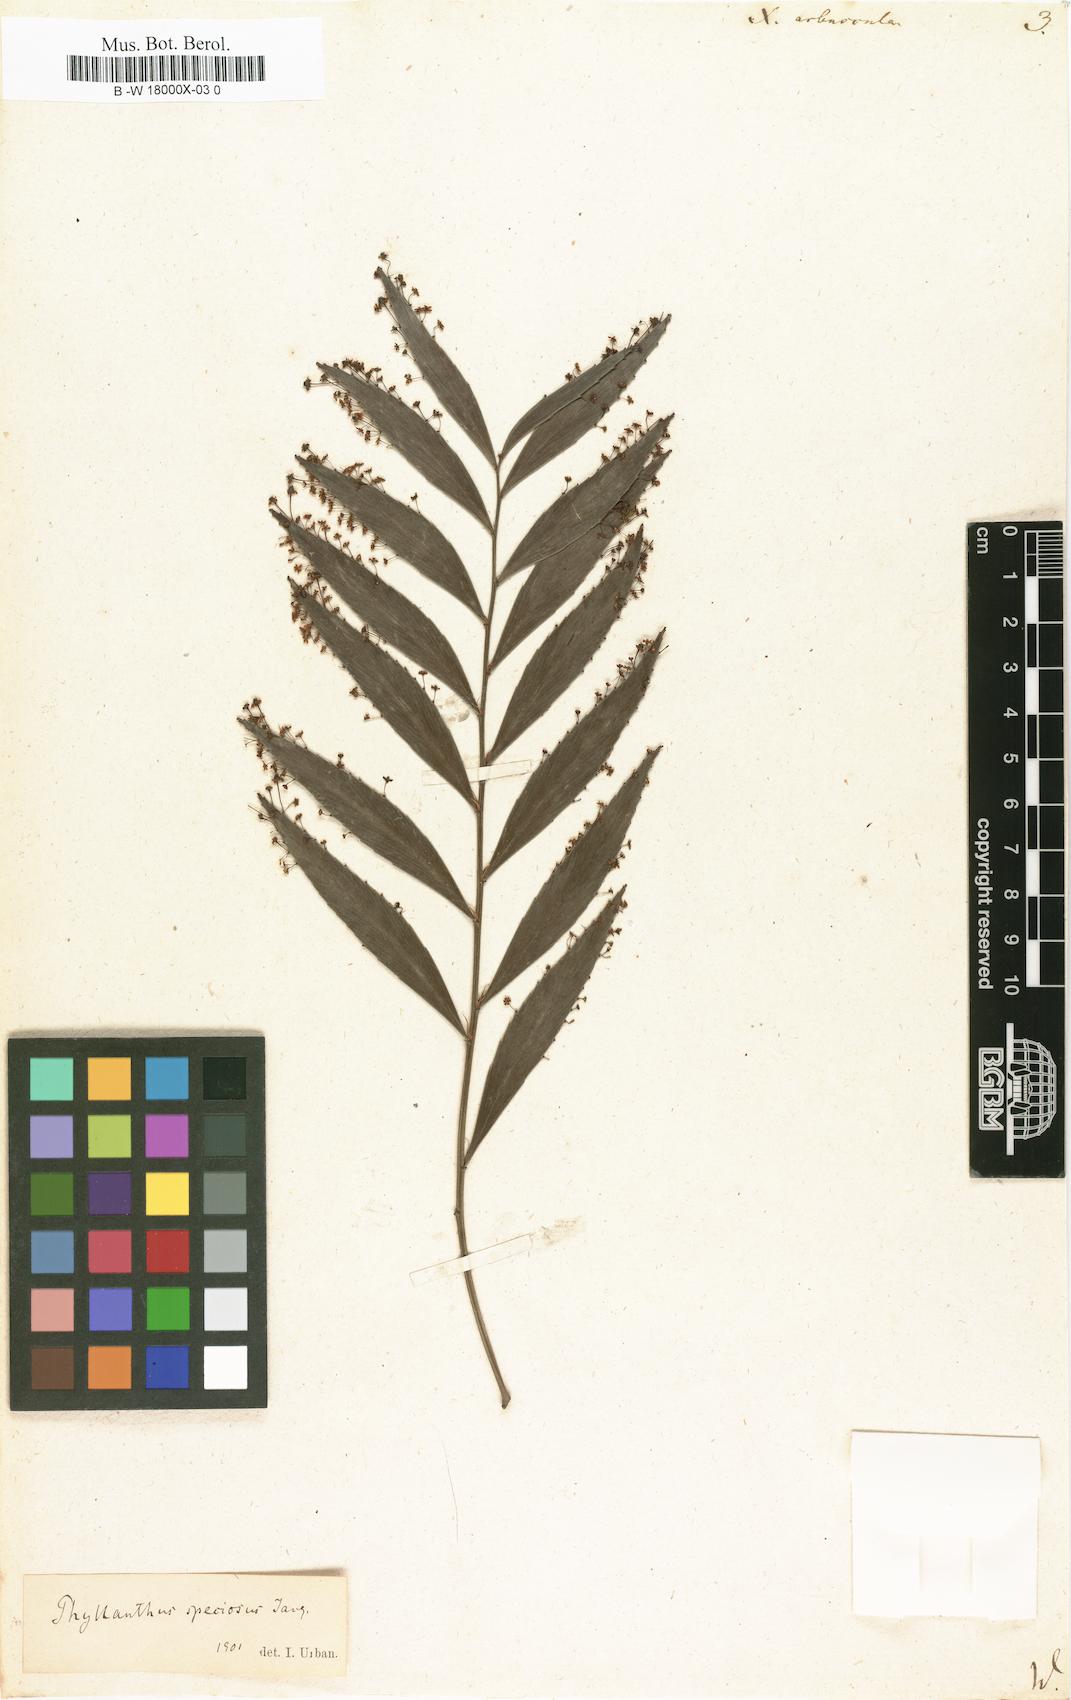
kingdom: Plantae
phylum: Tracheophyta
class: Magnoliopsida
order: Malpighiales
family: Phyllanthaceae
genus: Phyllanthus
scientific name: Phyllanthus arbuscula
